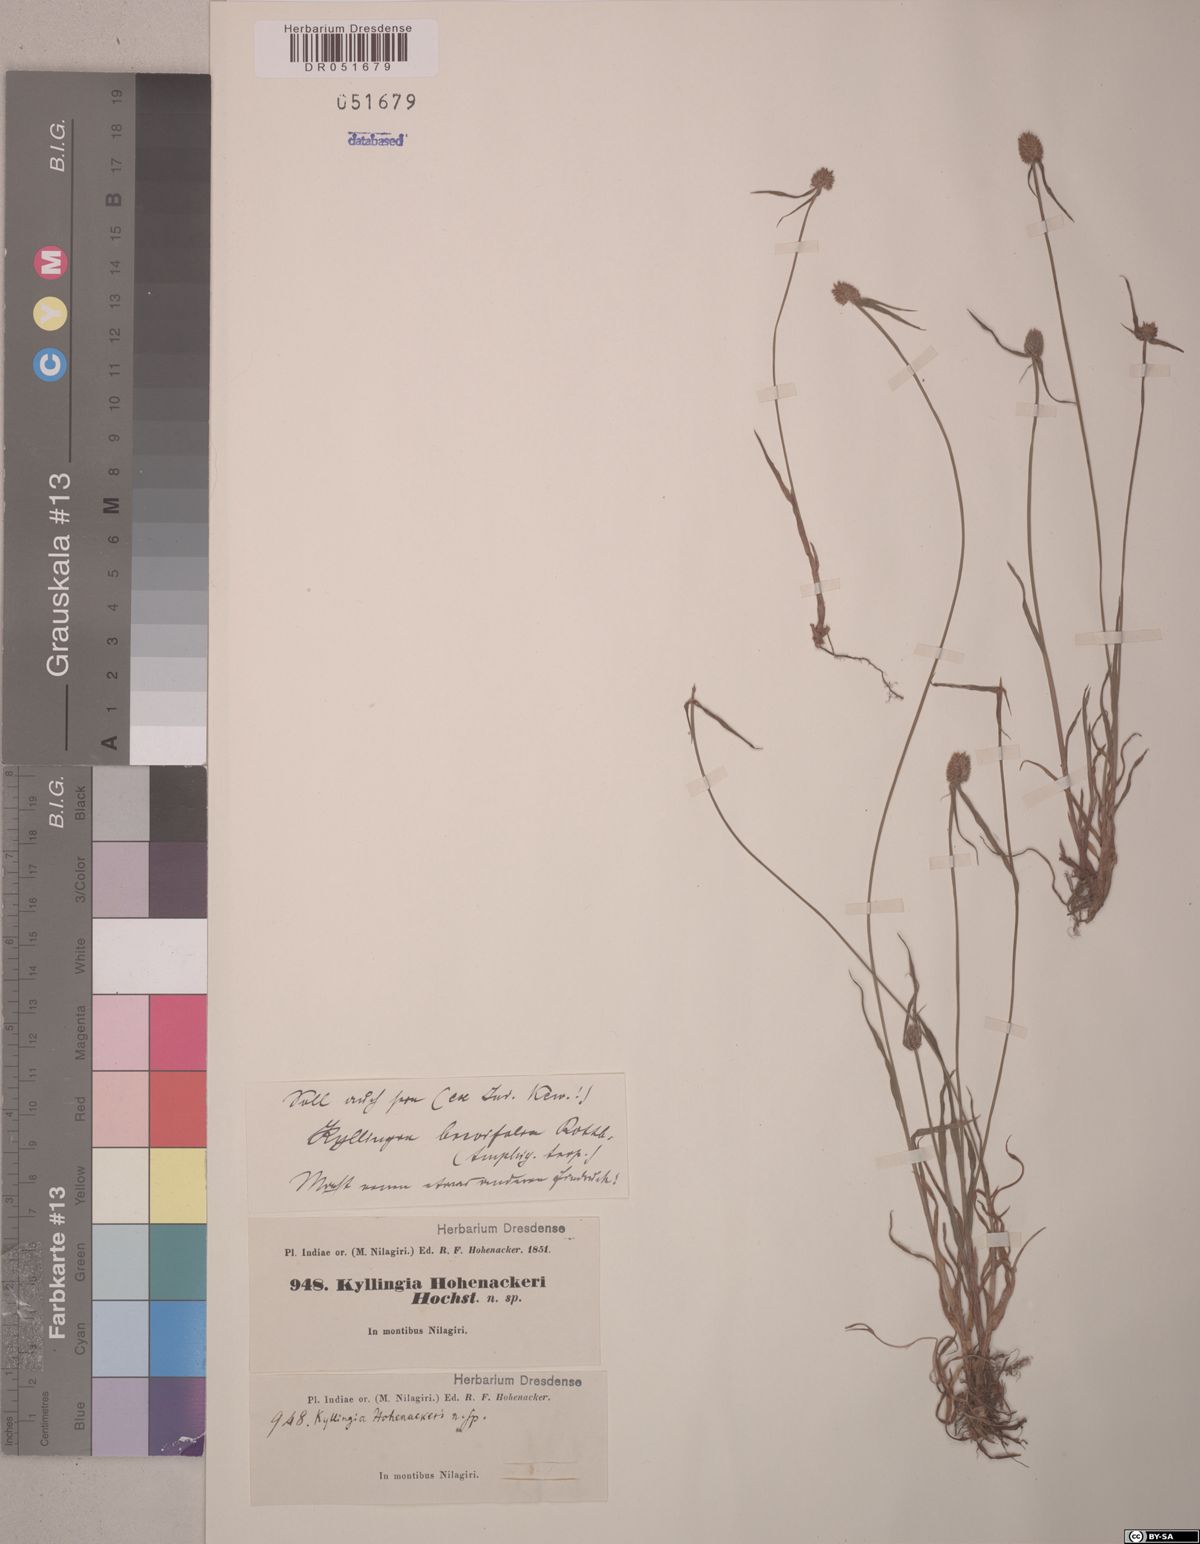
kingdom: Plantae
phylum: Tracheophyta
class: Liliopsida
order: Poales
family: Cyperaceae
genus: Cyperus
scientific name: Cyperus brevifolius
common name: Globe kyllinga
